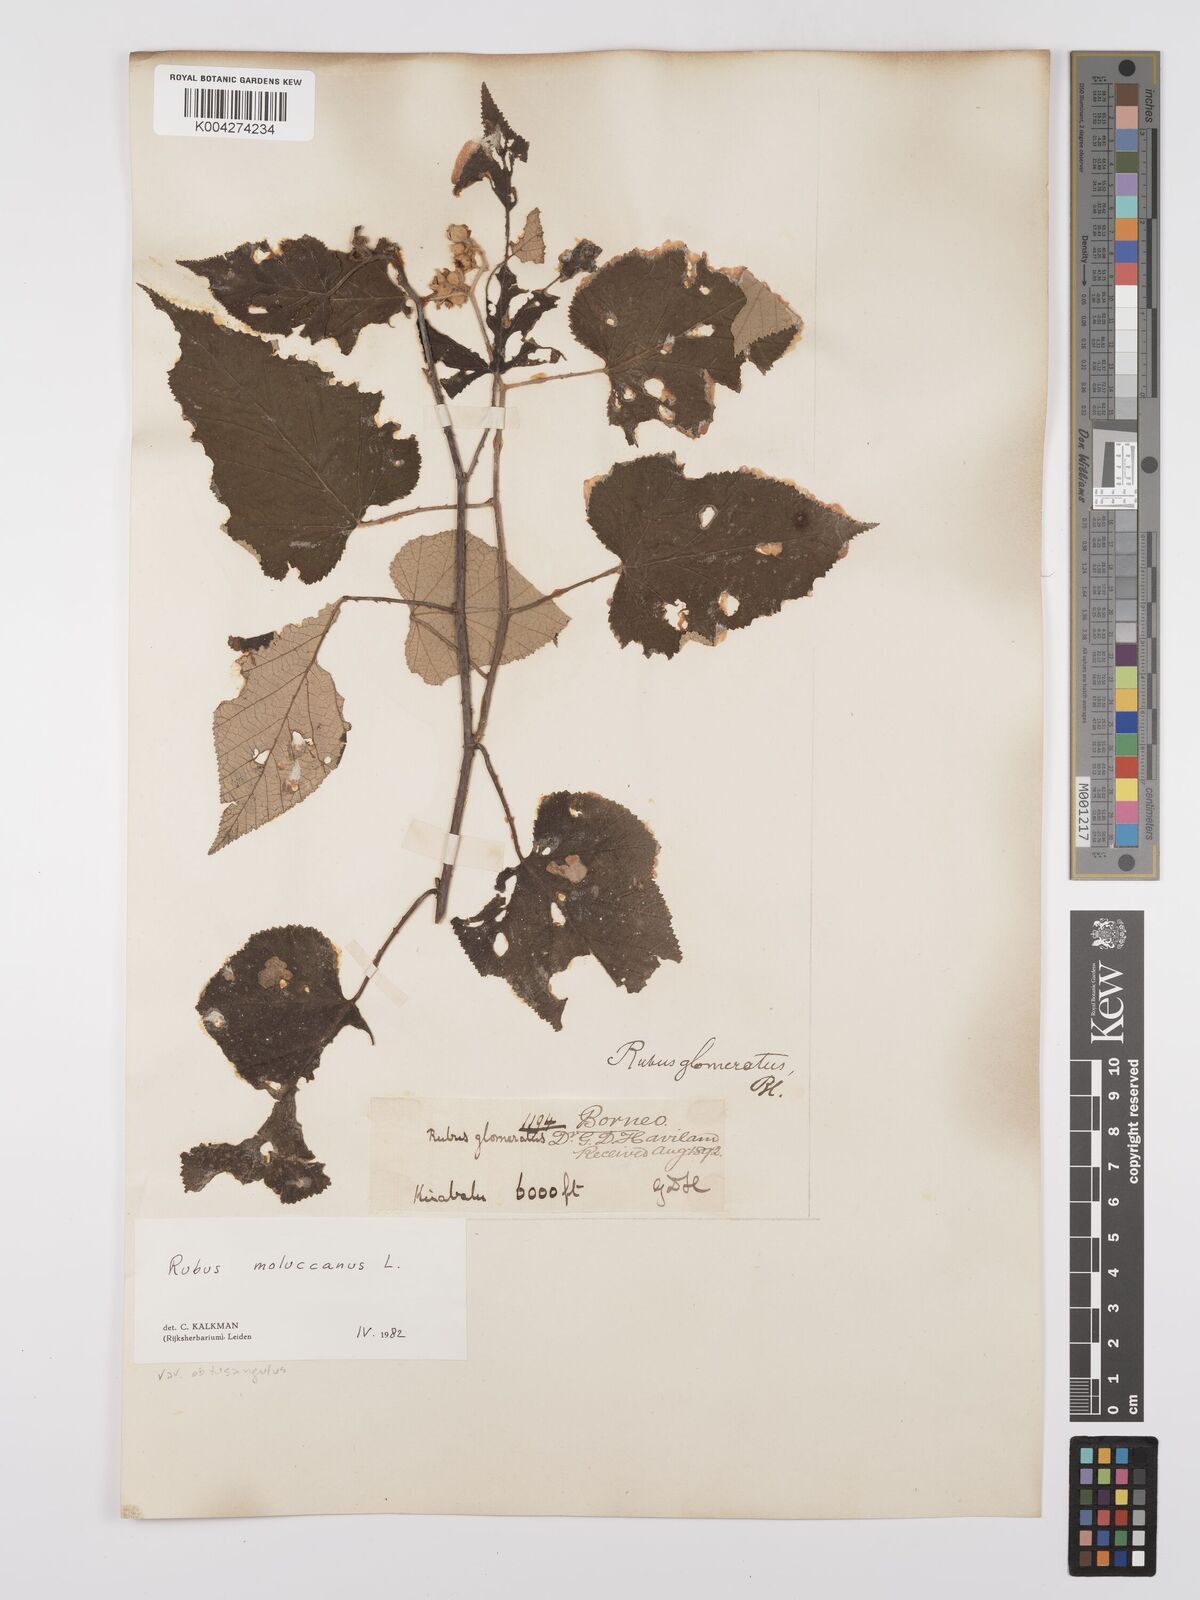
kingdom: Plantae
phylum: Tracheophyta
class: Magnoliopsida
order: Rosales
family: Rosaceae
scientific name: Rosaceae
